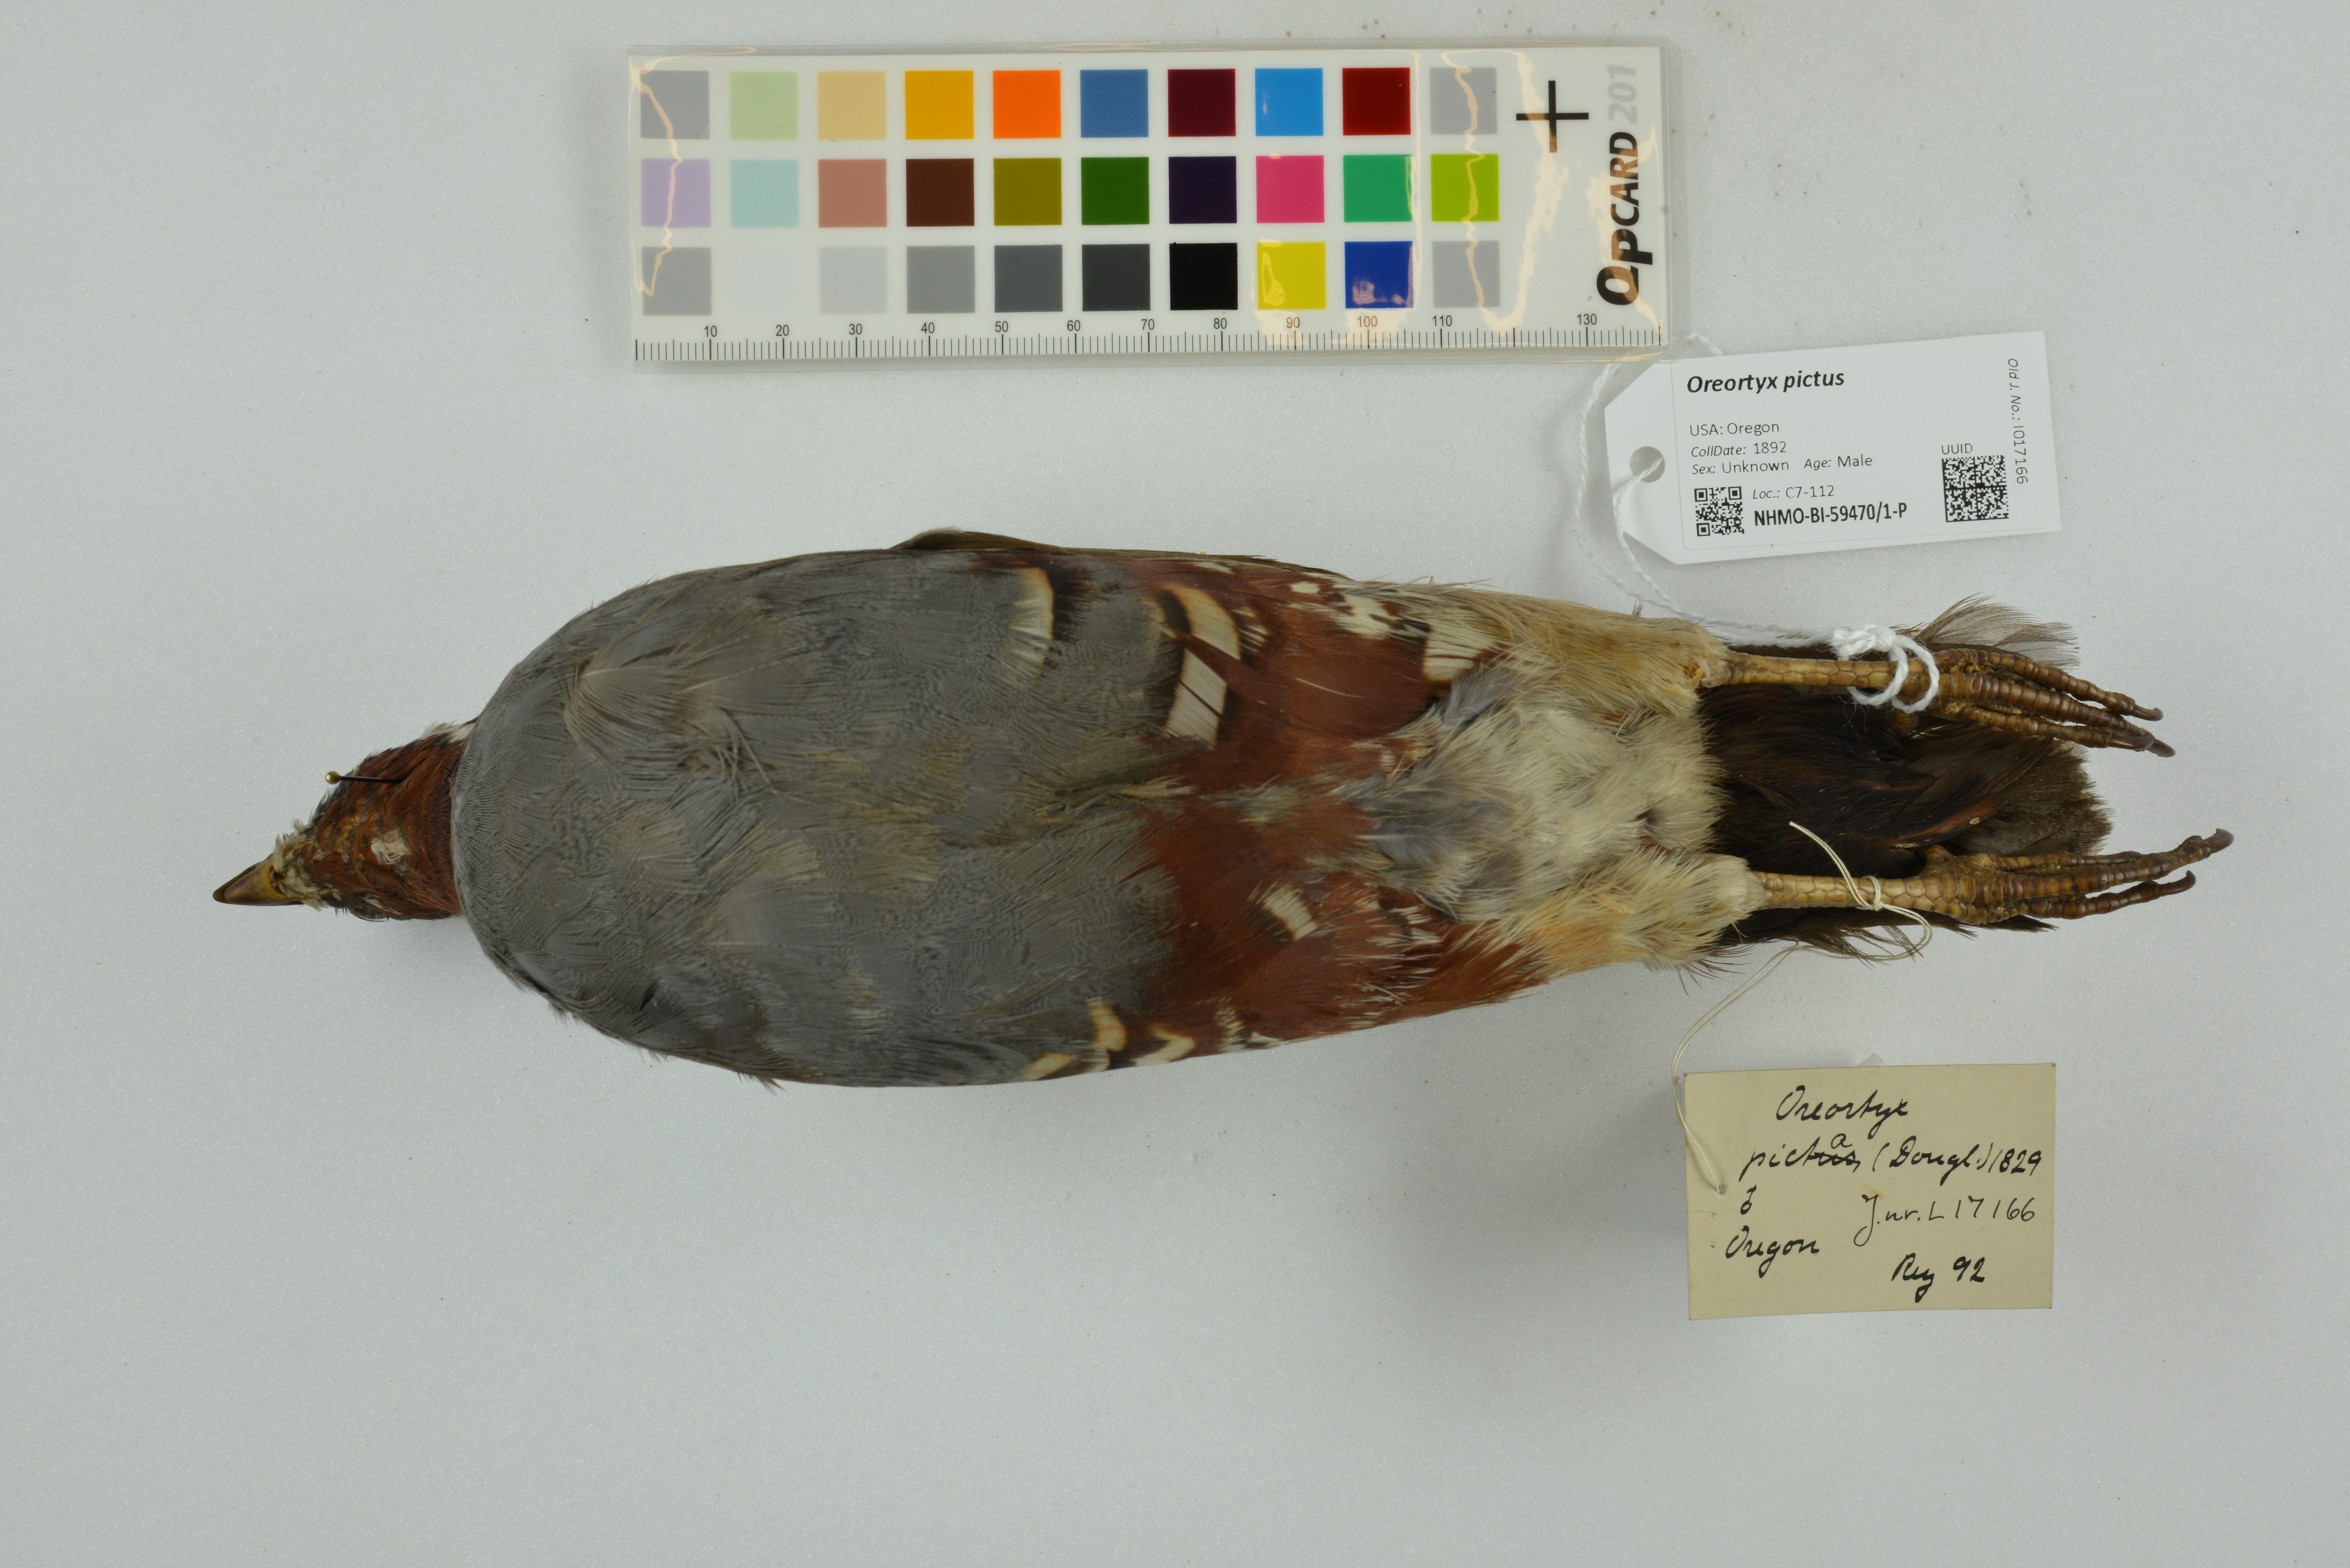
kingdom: Animalia
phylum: Chordata
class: Aves
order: Galliformes
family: Odontophoridae
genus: Oreortyx
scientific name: Oreortyx pictus
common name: Mountain quail
